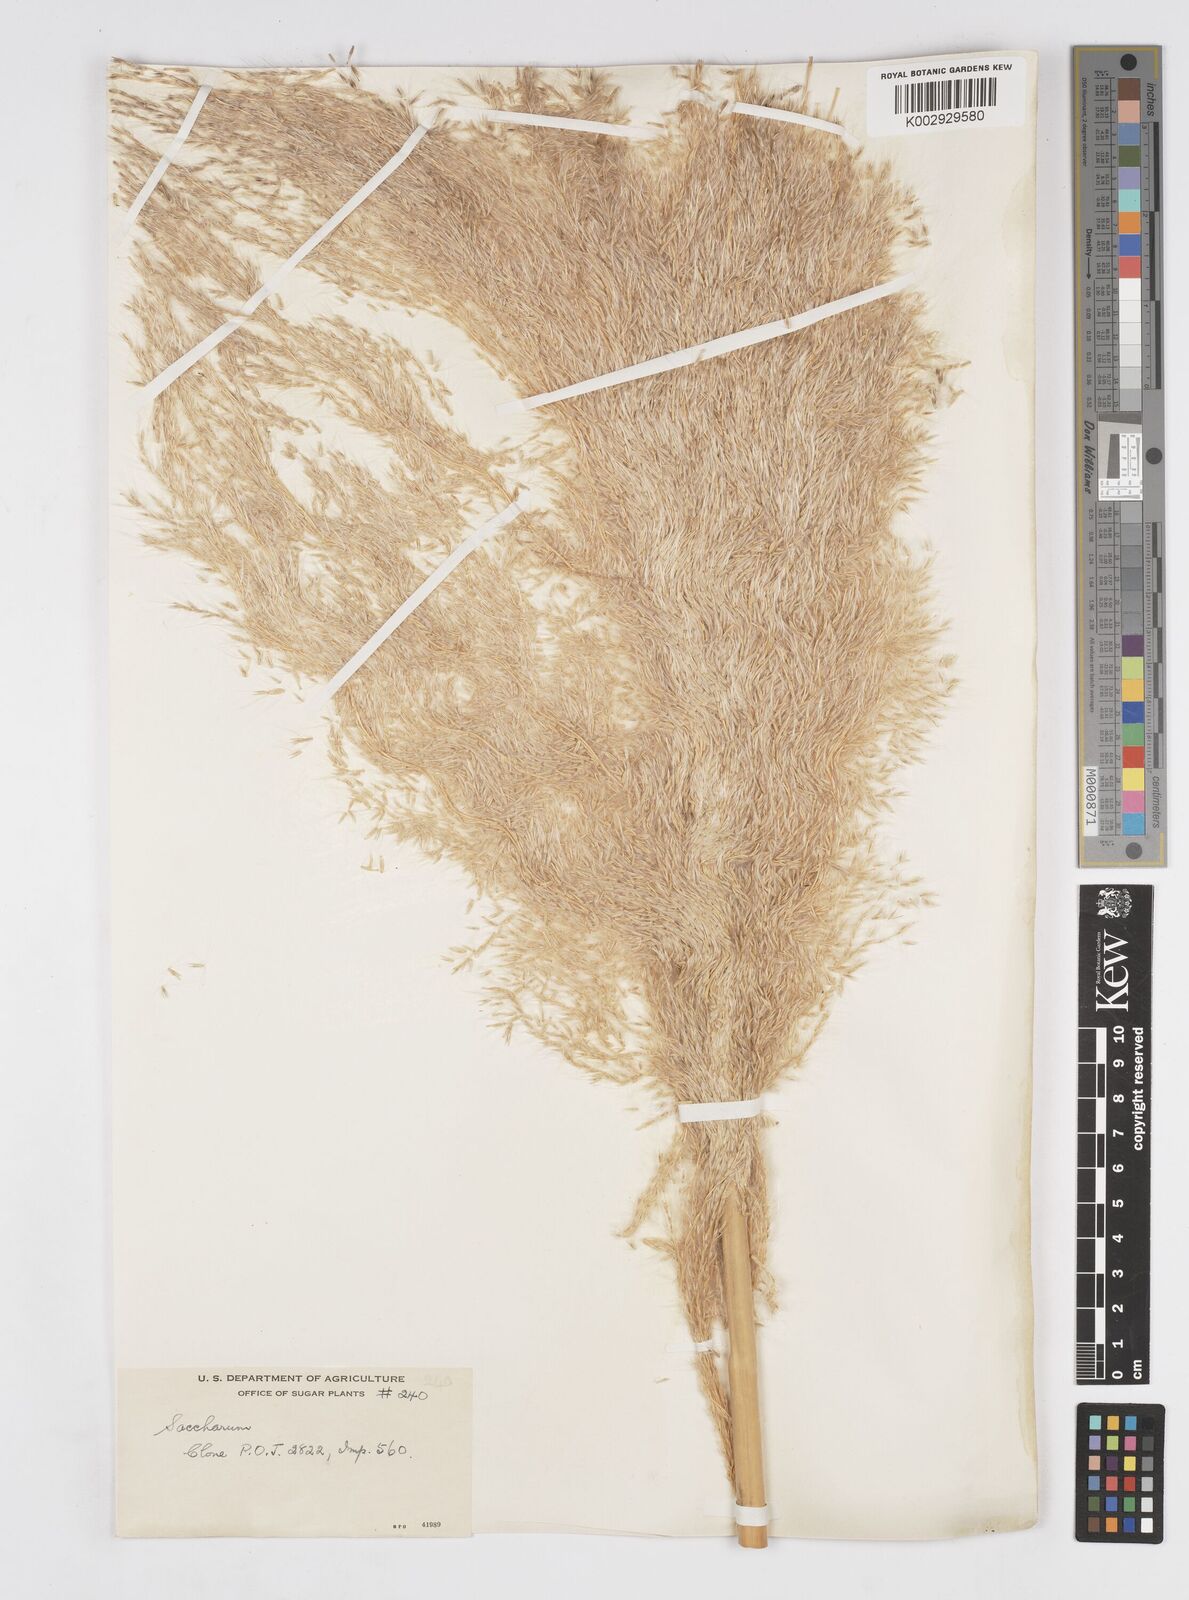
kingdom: Plantae
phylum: Tracheophyta
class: Liliopsida
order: Poales
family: Poaceae
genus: Saccharum
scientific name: Saccharum officinarum
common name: Sugarcane
